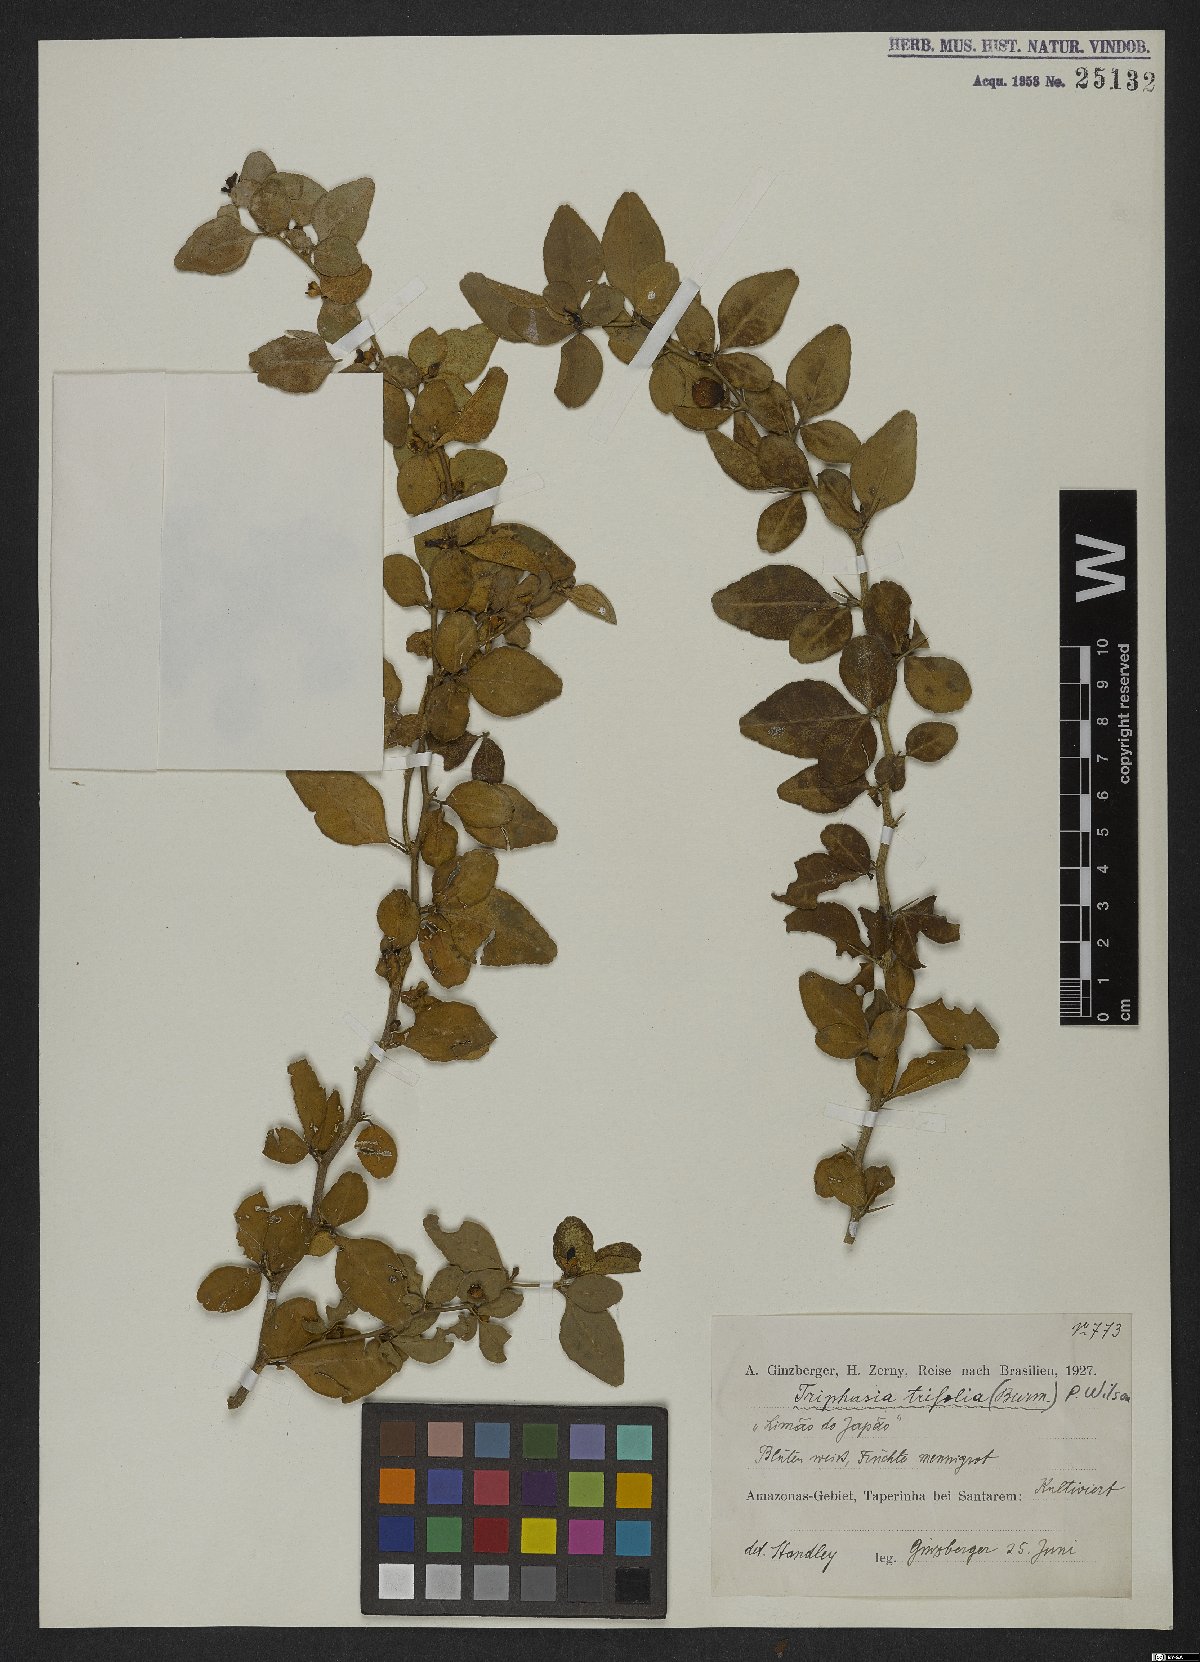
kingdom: Plantae
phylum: Tracheophyta
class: Magnoliopsida
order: Sapindales
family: Rutaceae
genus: Triphasia
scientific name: Triphasia trifolia
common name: Limeberry
